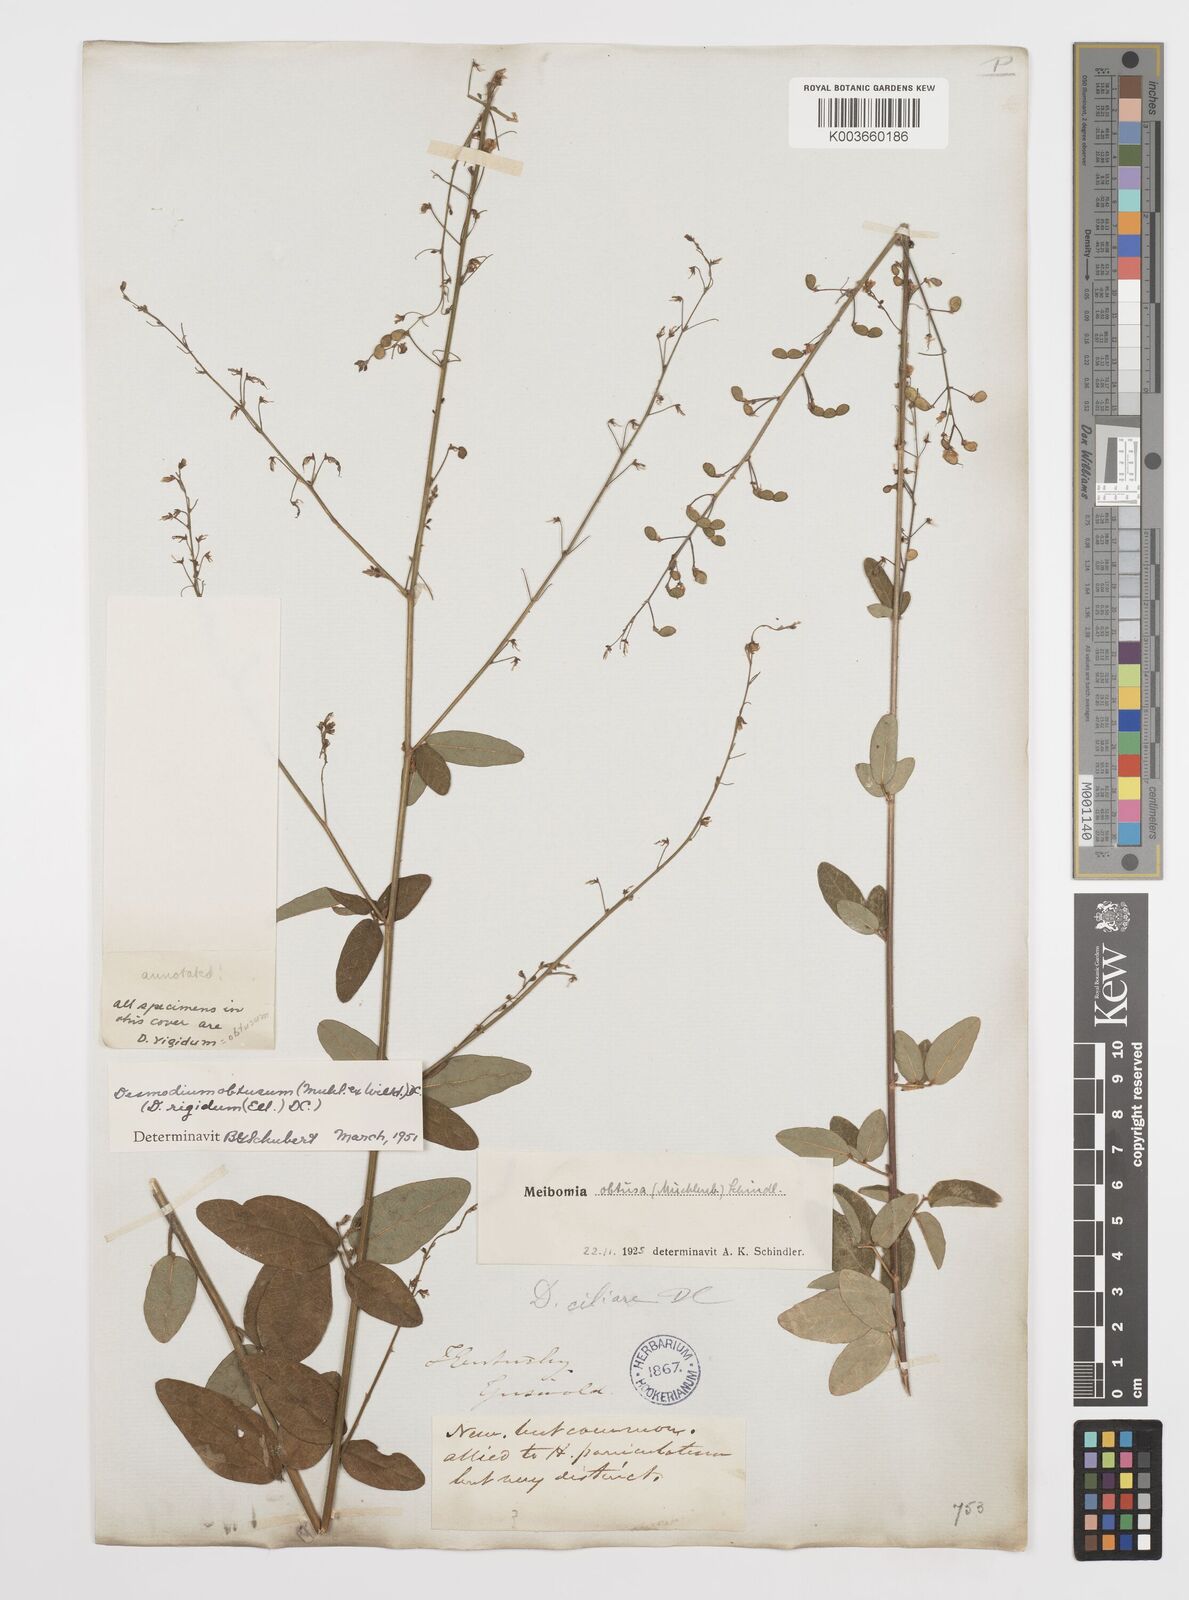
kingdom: Plantae
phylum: Tracheophyta
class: Magnoliopsida
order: Fabales
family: Fabaceae
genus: Desmodium
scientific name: Desmodium obtusum
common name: Stiff tick trefoil
